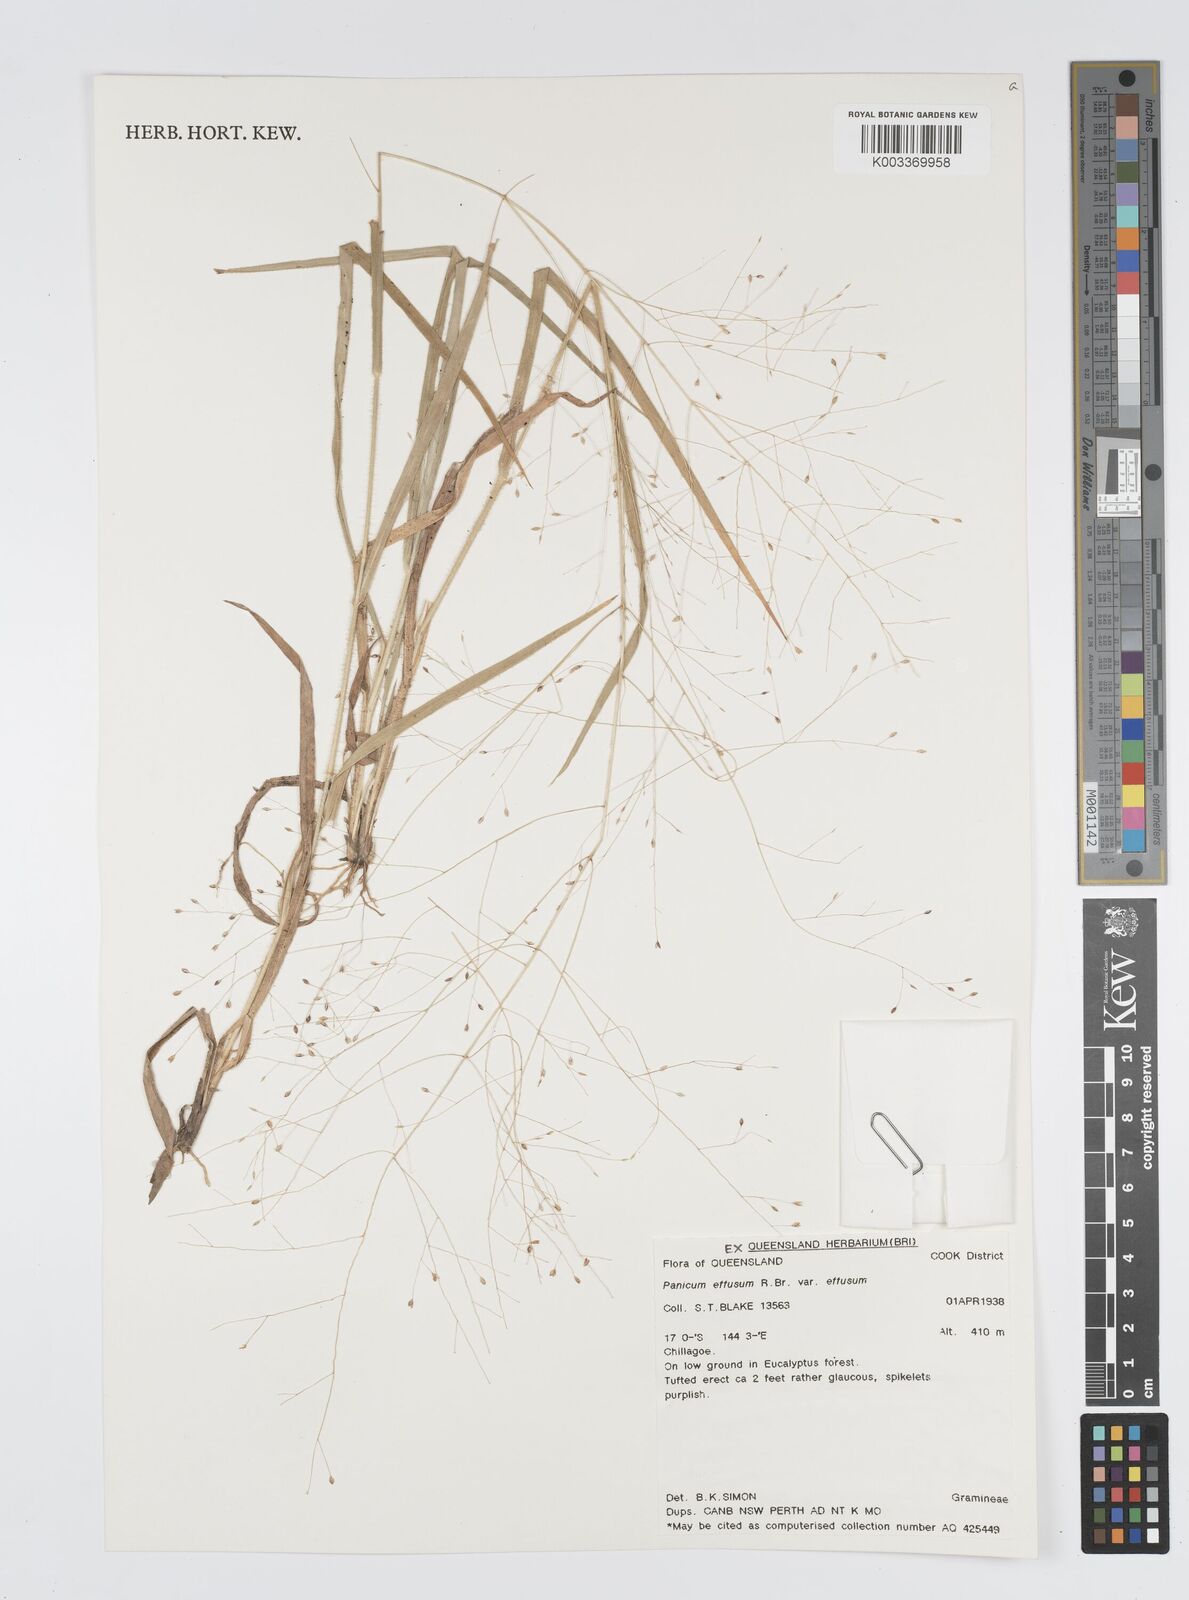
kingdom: Plantae
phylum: Tracheophyta
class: Liliopsida
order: Poales
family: Poaceae
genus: Panicum
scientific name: Panicum effusum
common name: Hairy panic grass
